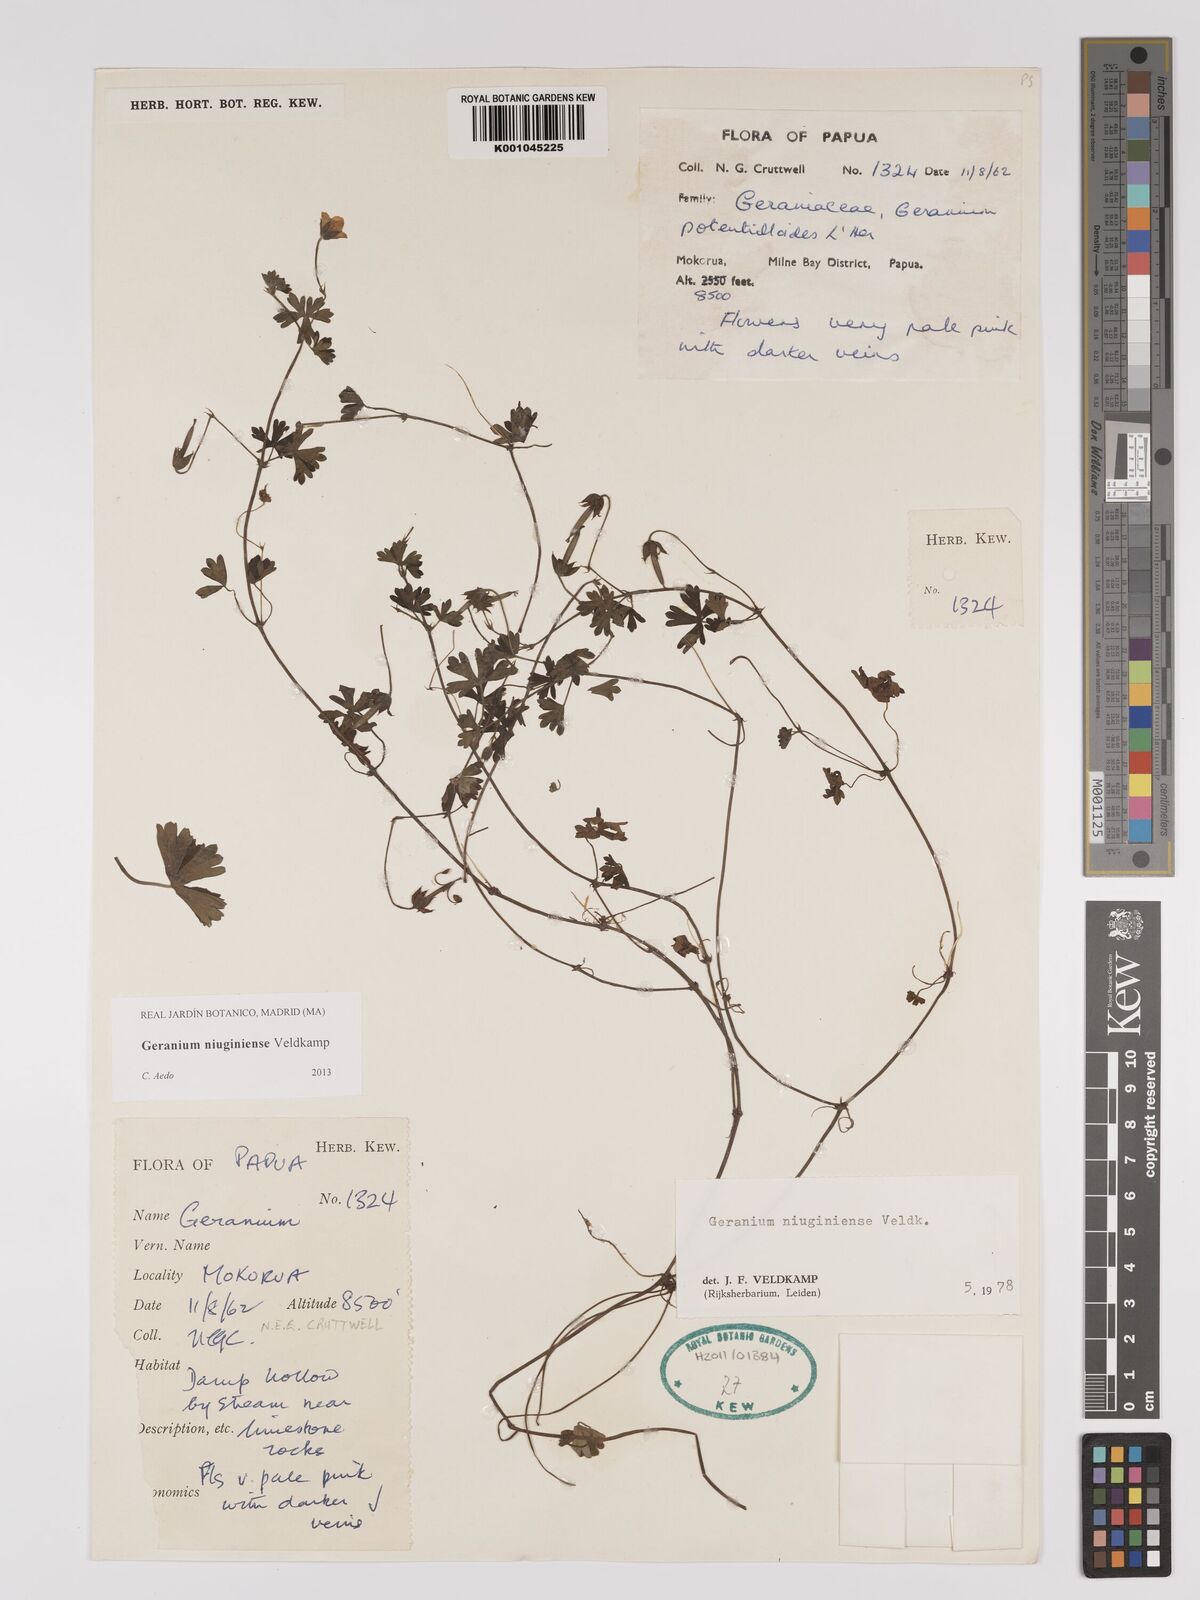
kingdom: Plantae
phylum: Tracheophyta
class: Magnoliopsida
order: Geraniales
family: Geraniaceae
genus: Geranium
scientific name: Geranium niuginiense
